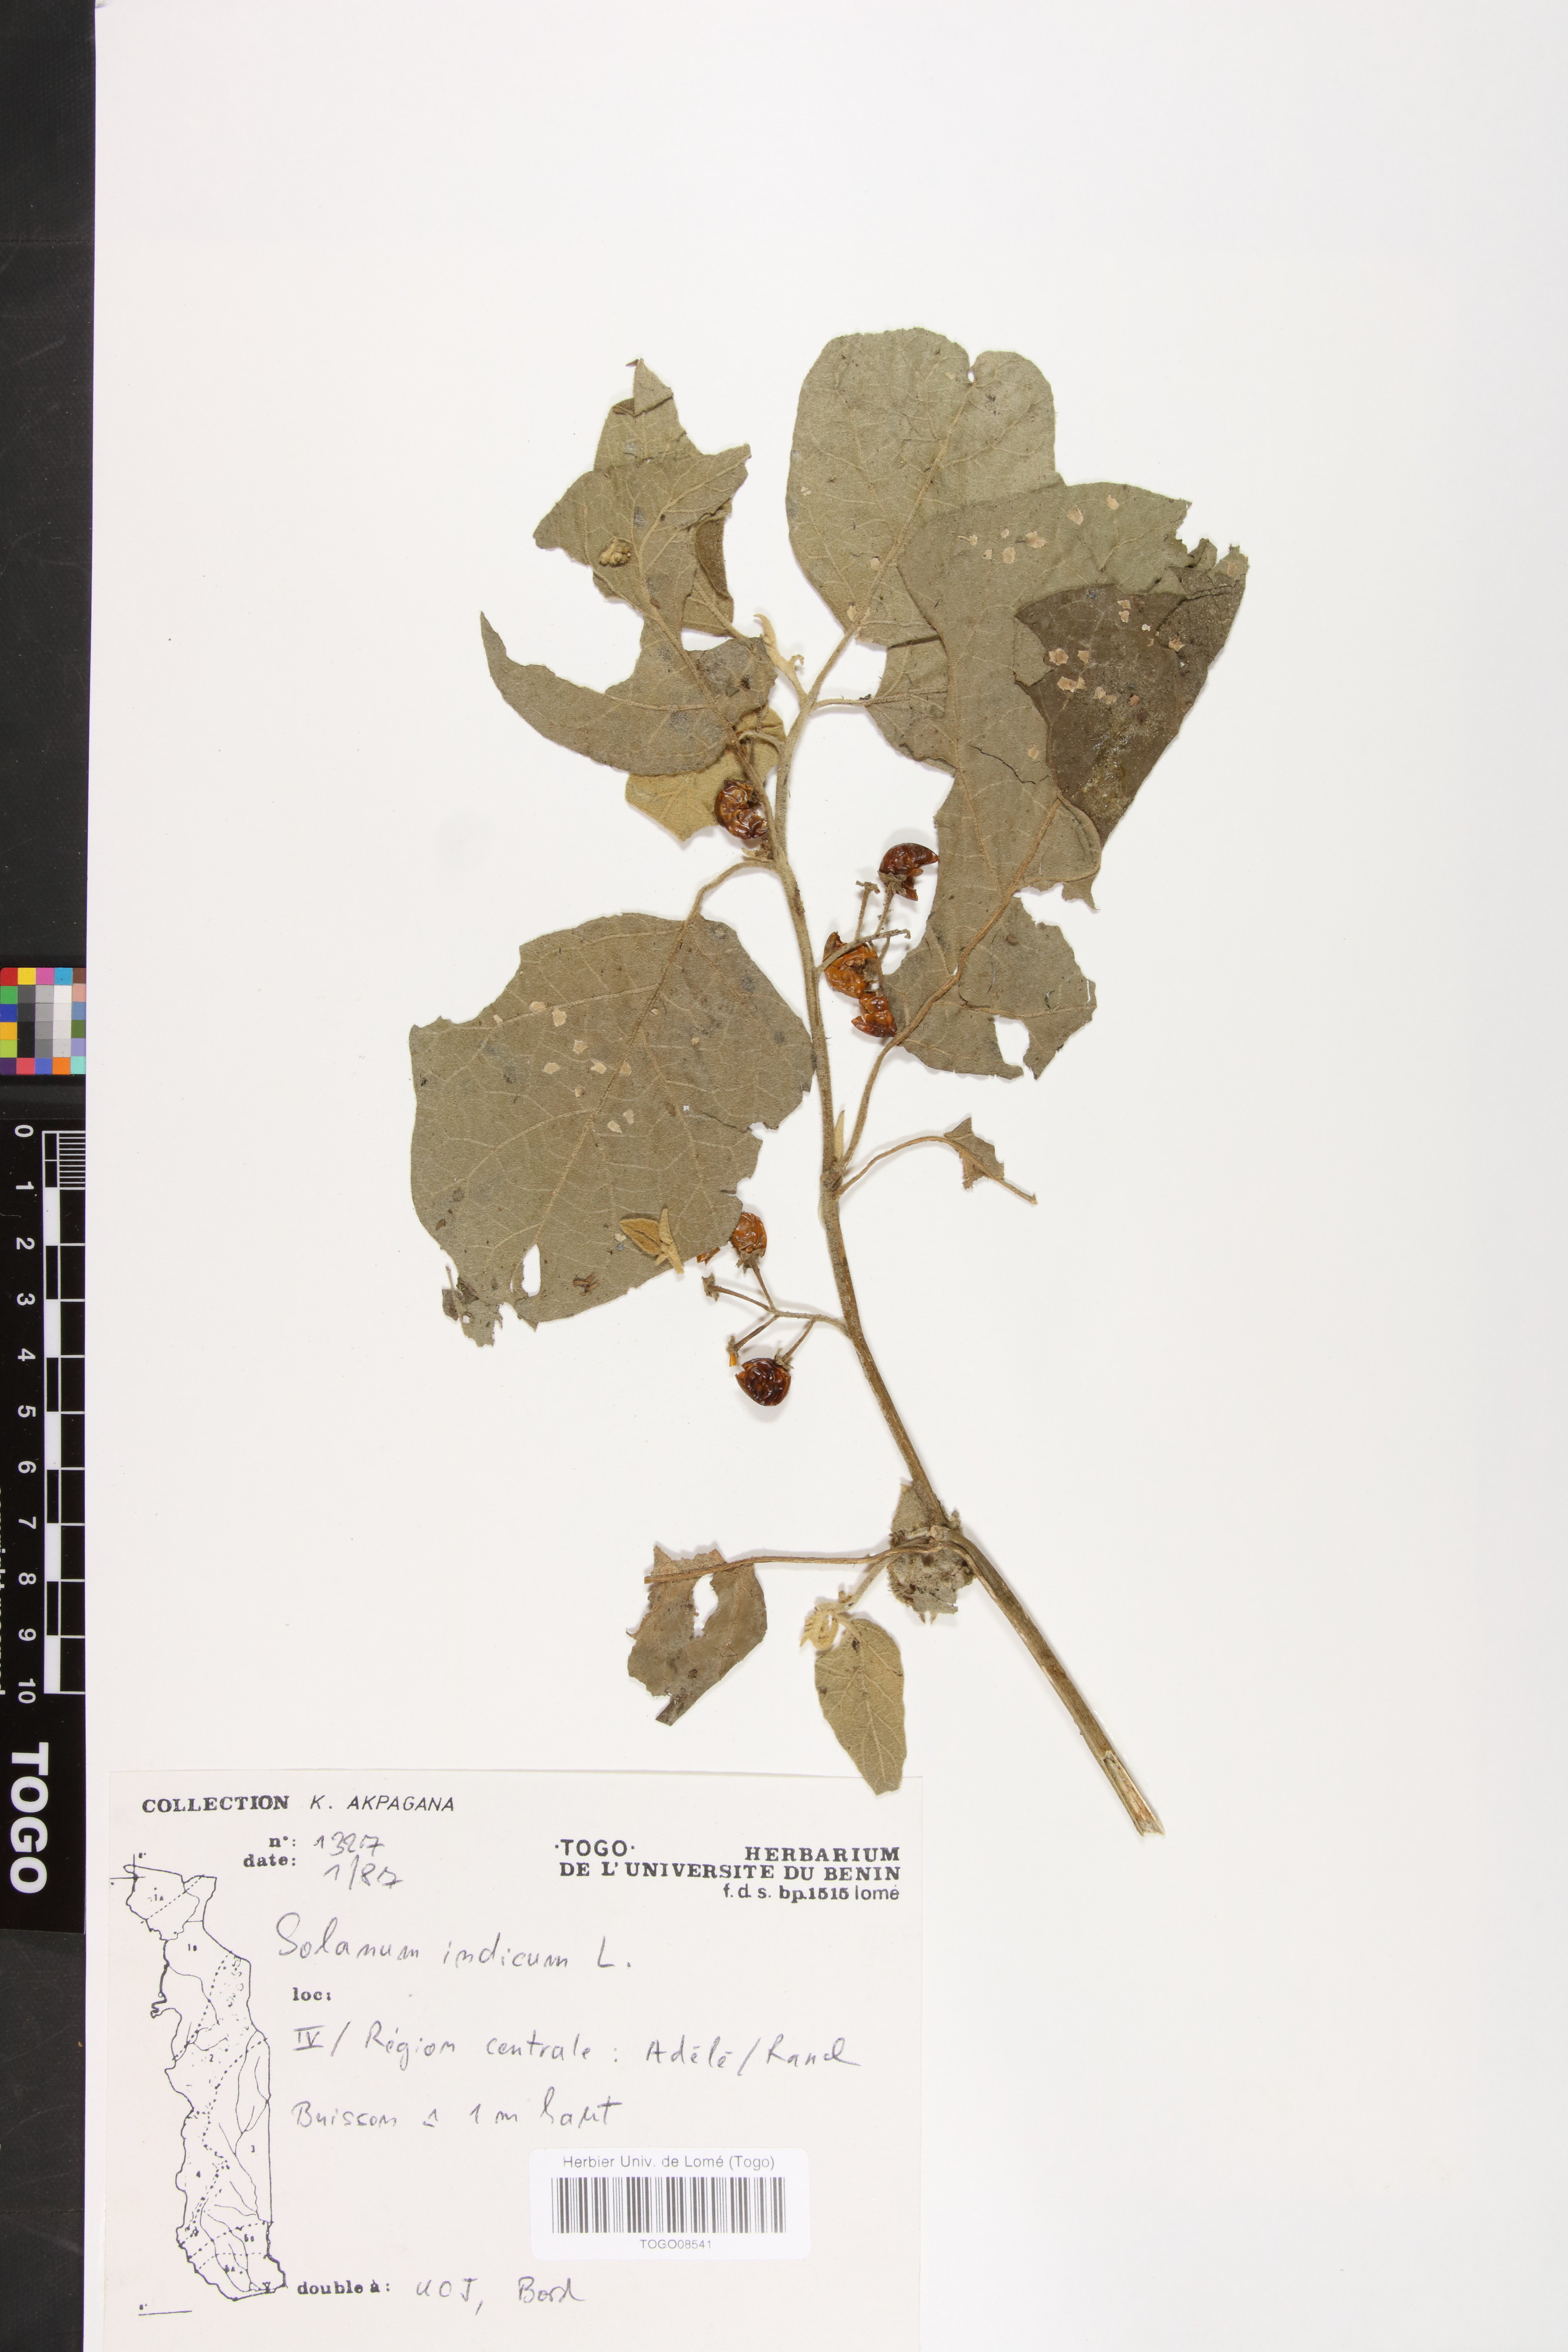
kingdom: Plantae
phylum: Tracheophyta
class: Magnoliopsida
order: Solanales
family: Solanaceae
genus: Solanum
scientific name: Solanum incanum
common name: Bitter apple
